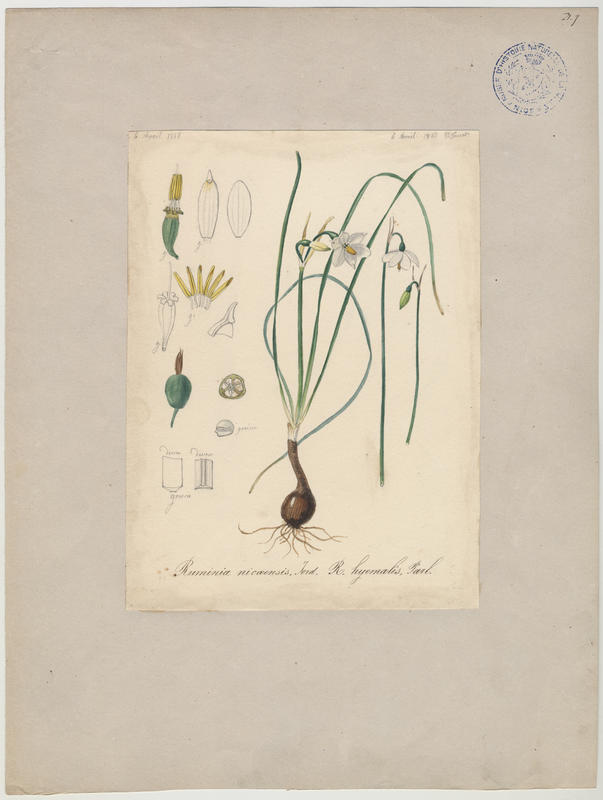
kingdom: Plantae
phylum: Tracheophyta
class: Liliopsida
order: Asparagales
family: Amaryllidaceae
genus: Acis
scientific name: Acis nicaeensis
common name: French snowflake
